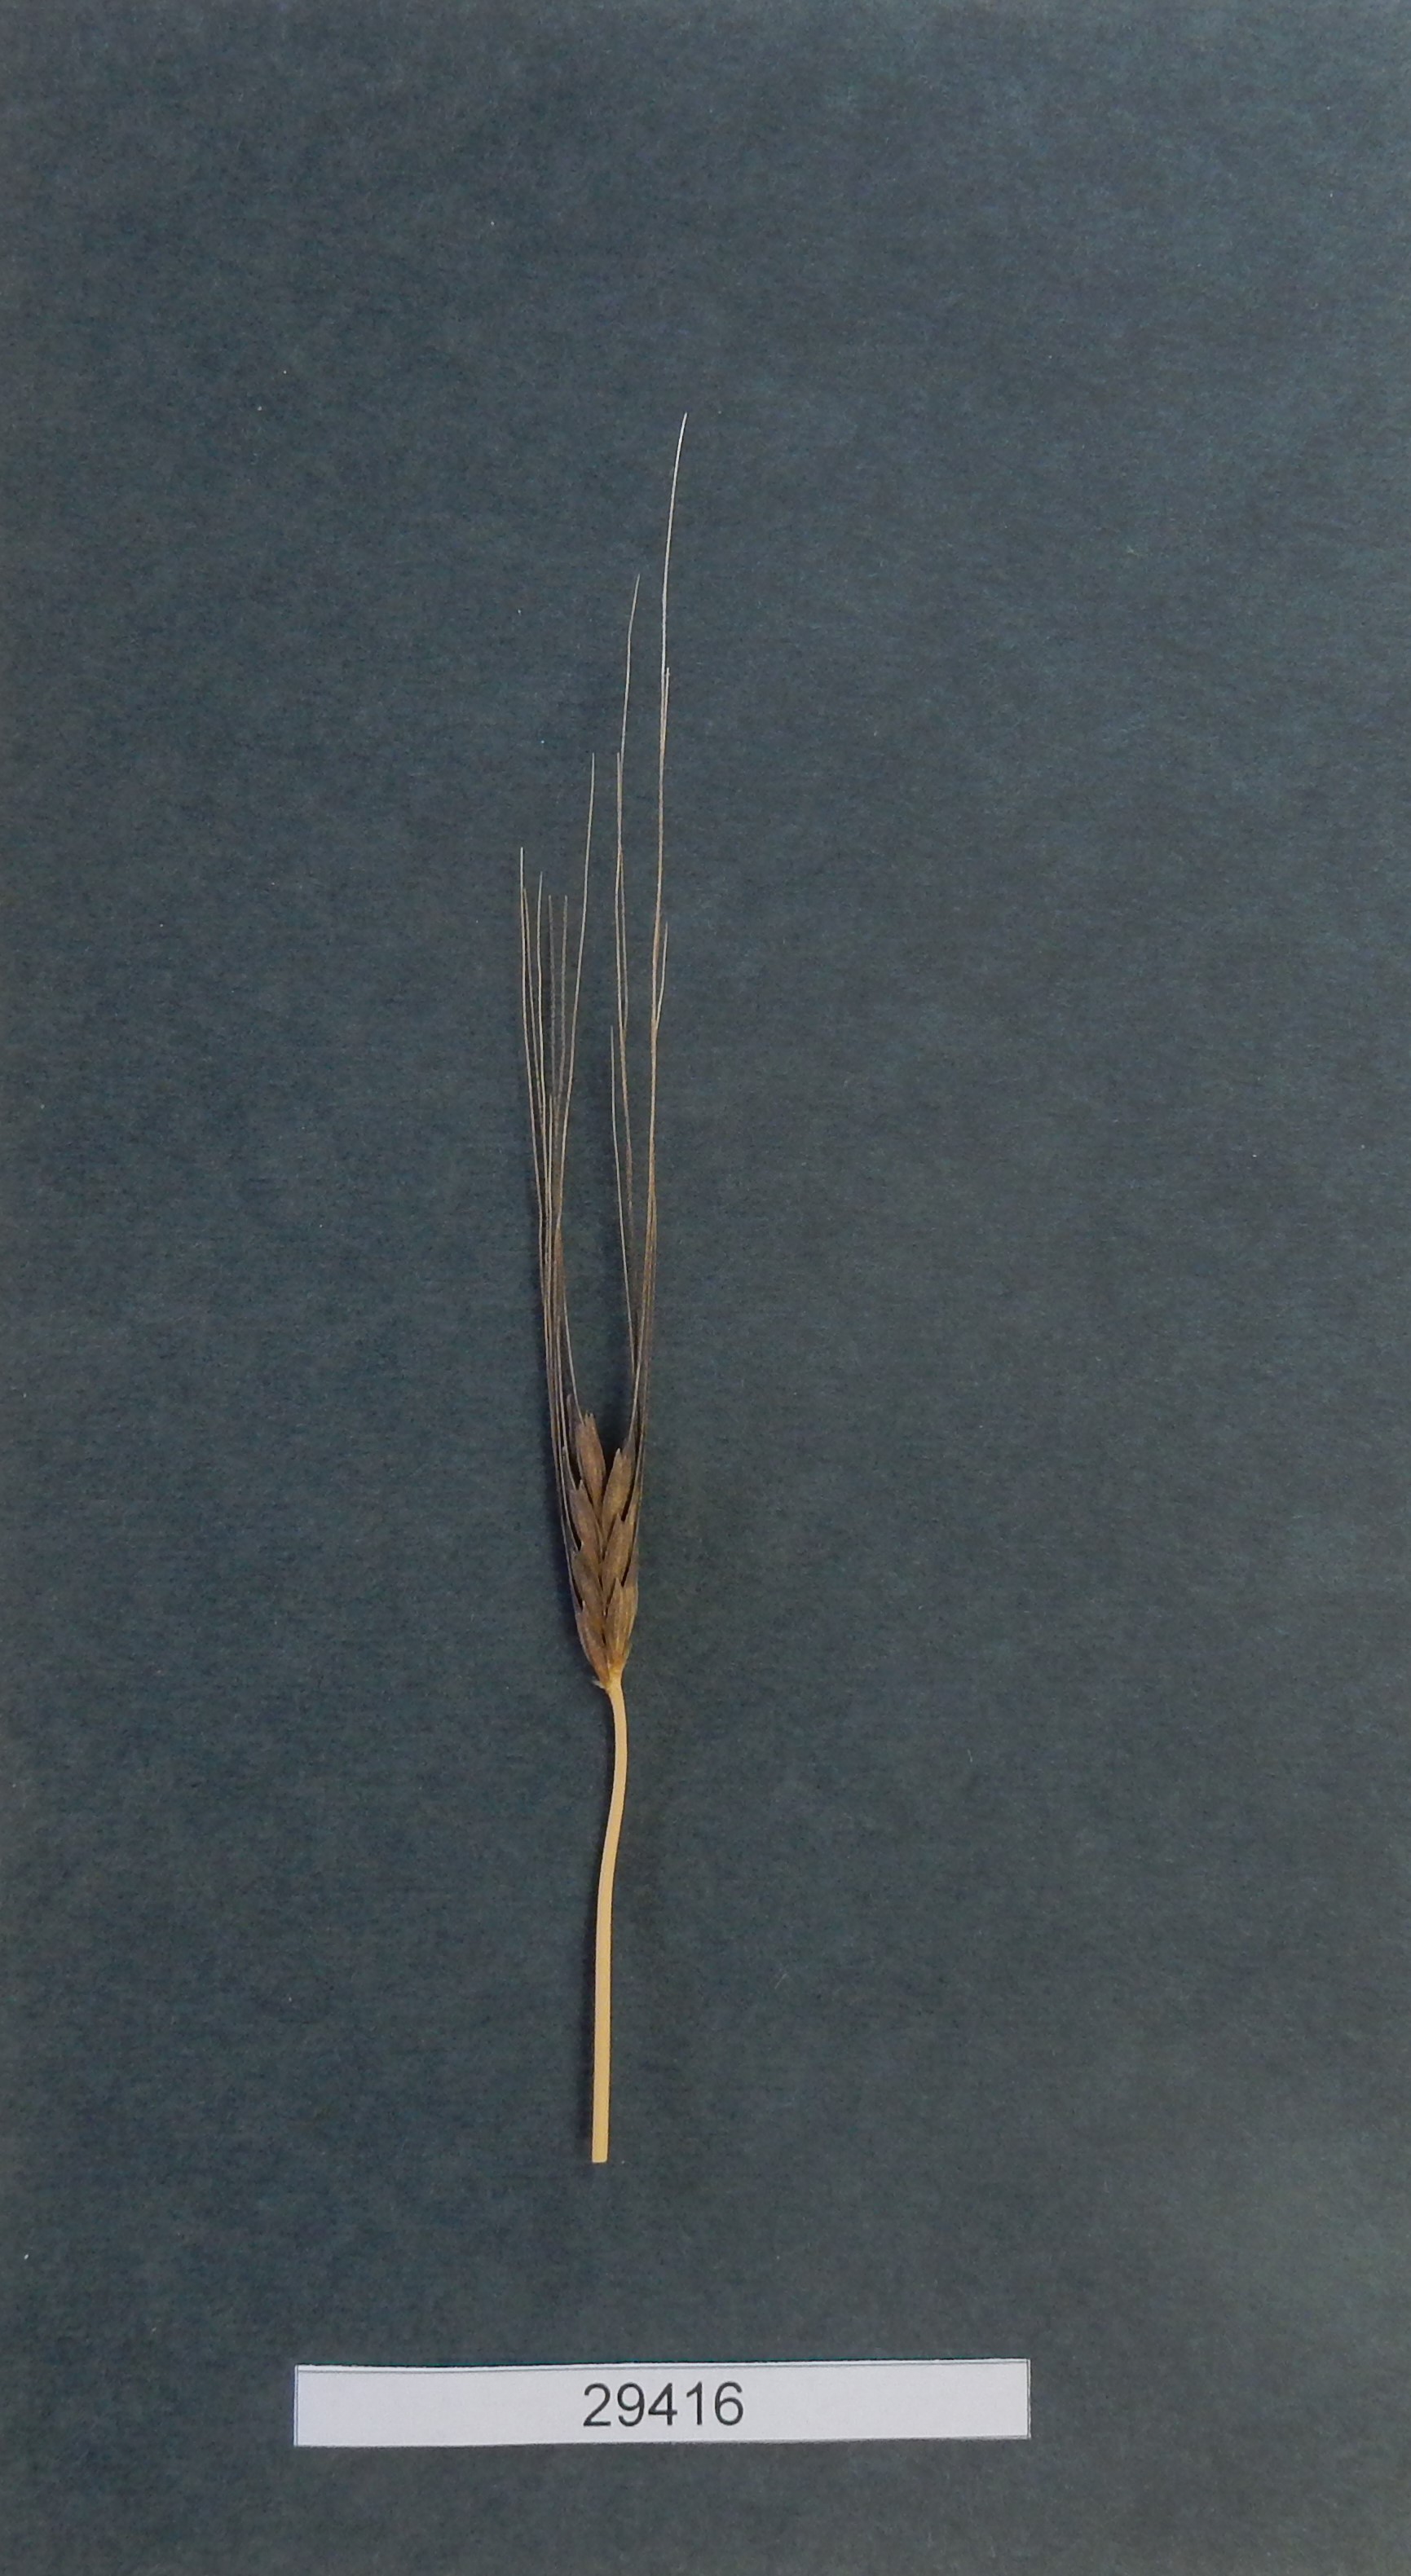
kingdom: Plantae
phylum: Tracheophyta
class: Liliopsida
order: Poales
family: Poaceae
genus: Triticum
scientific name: Triticum monococcum
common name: Wheat
